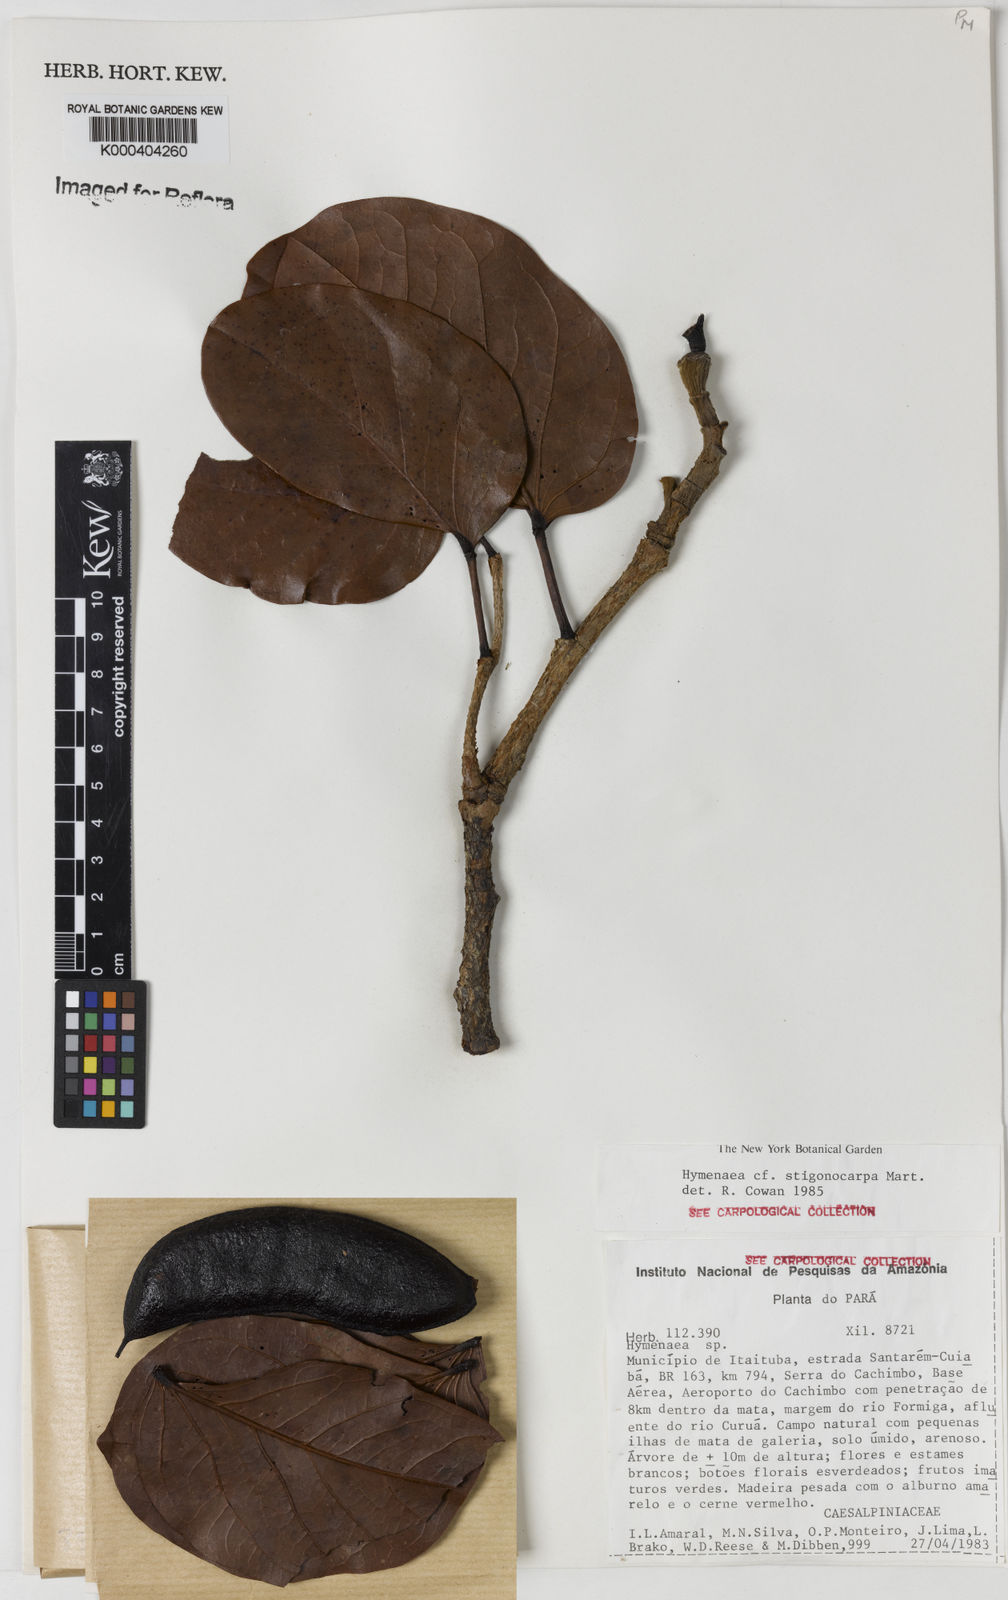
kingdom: Plantae
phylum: Tracheophyta
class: Magnoliopsida
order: Fabales
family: Fabaceae
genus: Hymenaea
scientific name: Hymenaea stigonocarpa
